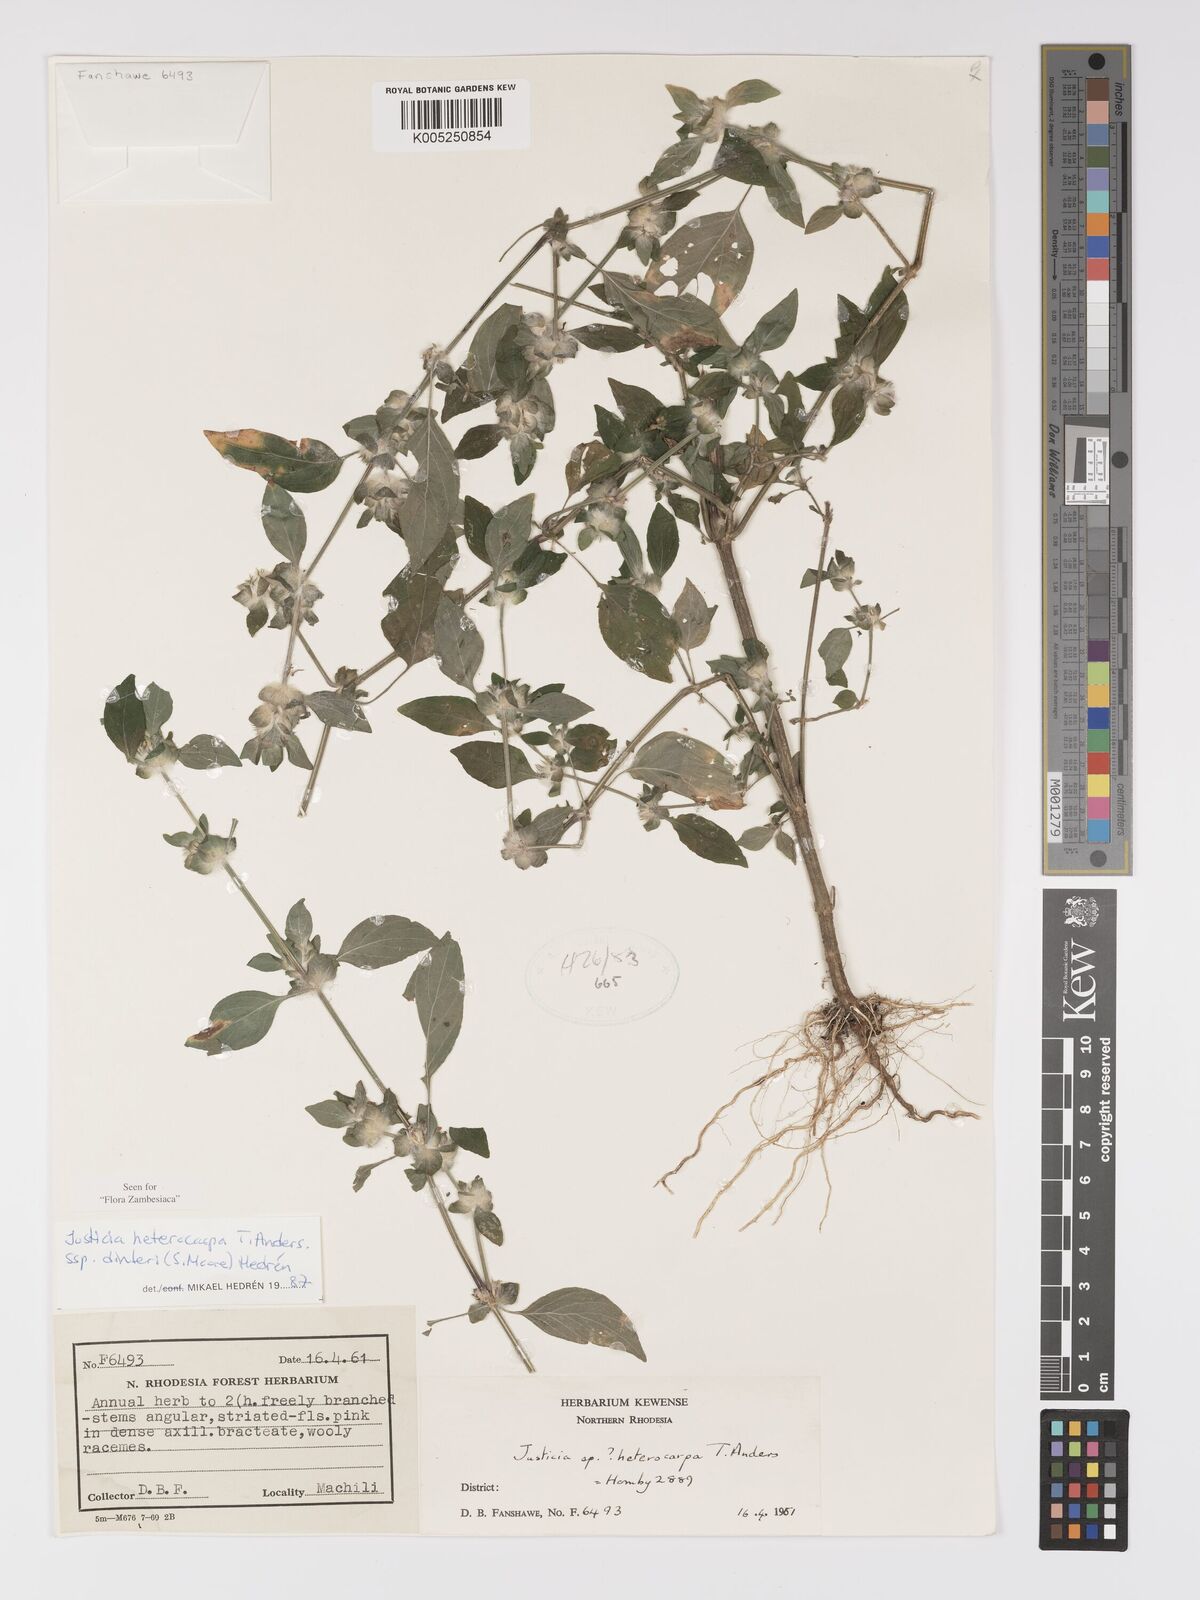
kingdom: Plantae
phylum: Tracheophyta
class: Magnoliopsida
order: Lamiales
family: Acanthaceae
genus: Justicia
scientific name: Justicia heterocarpa
